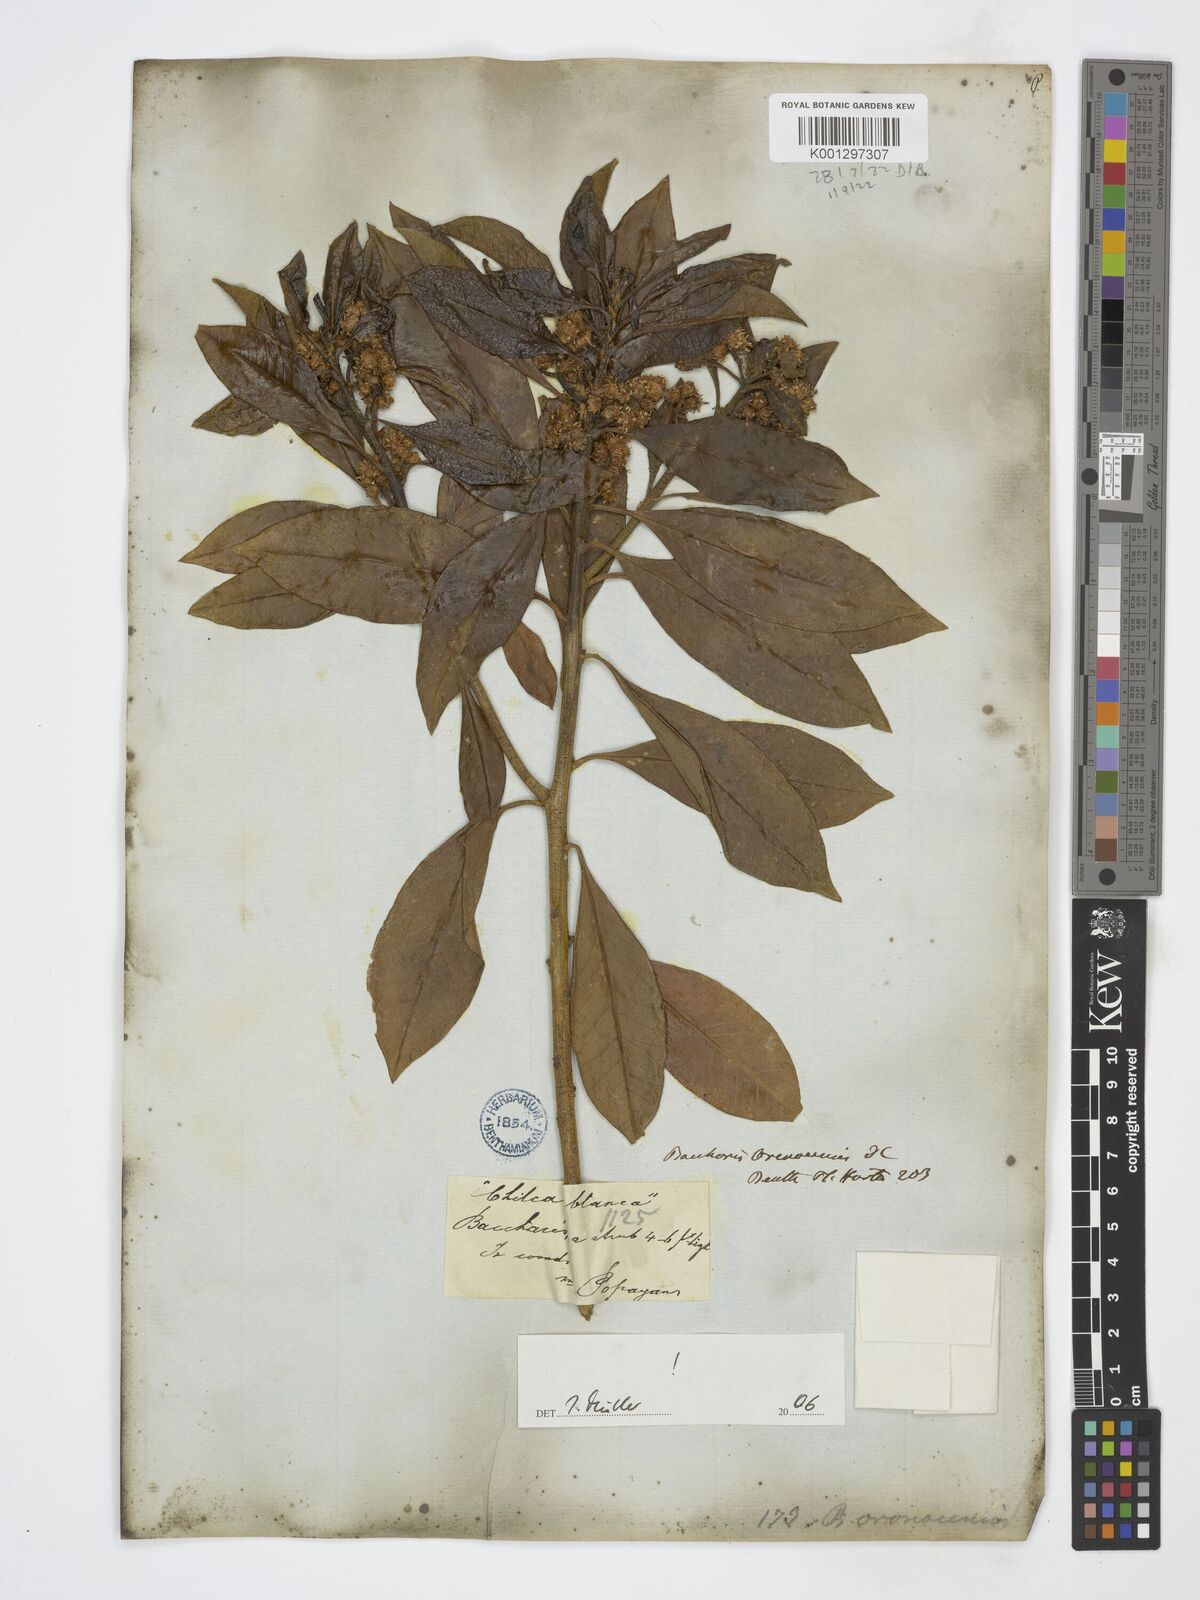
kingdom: Plantae
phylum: Tracheophyta
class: Magnoliopsida
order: Asterales
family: Asteraceae
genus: Baccharis
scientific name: Baccharis nitida
